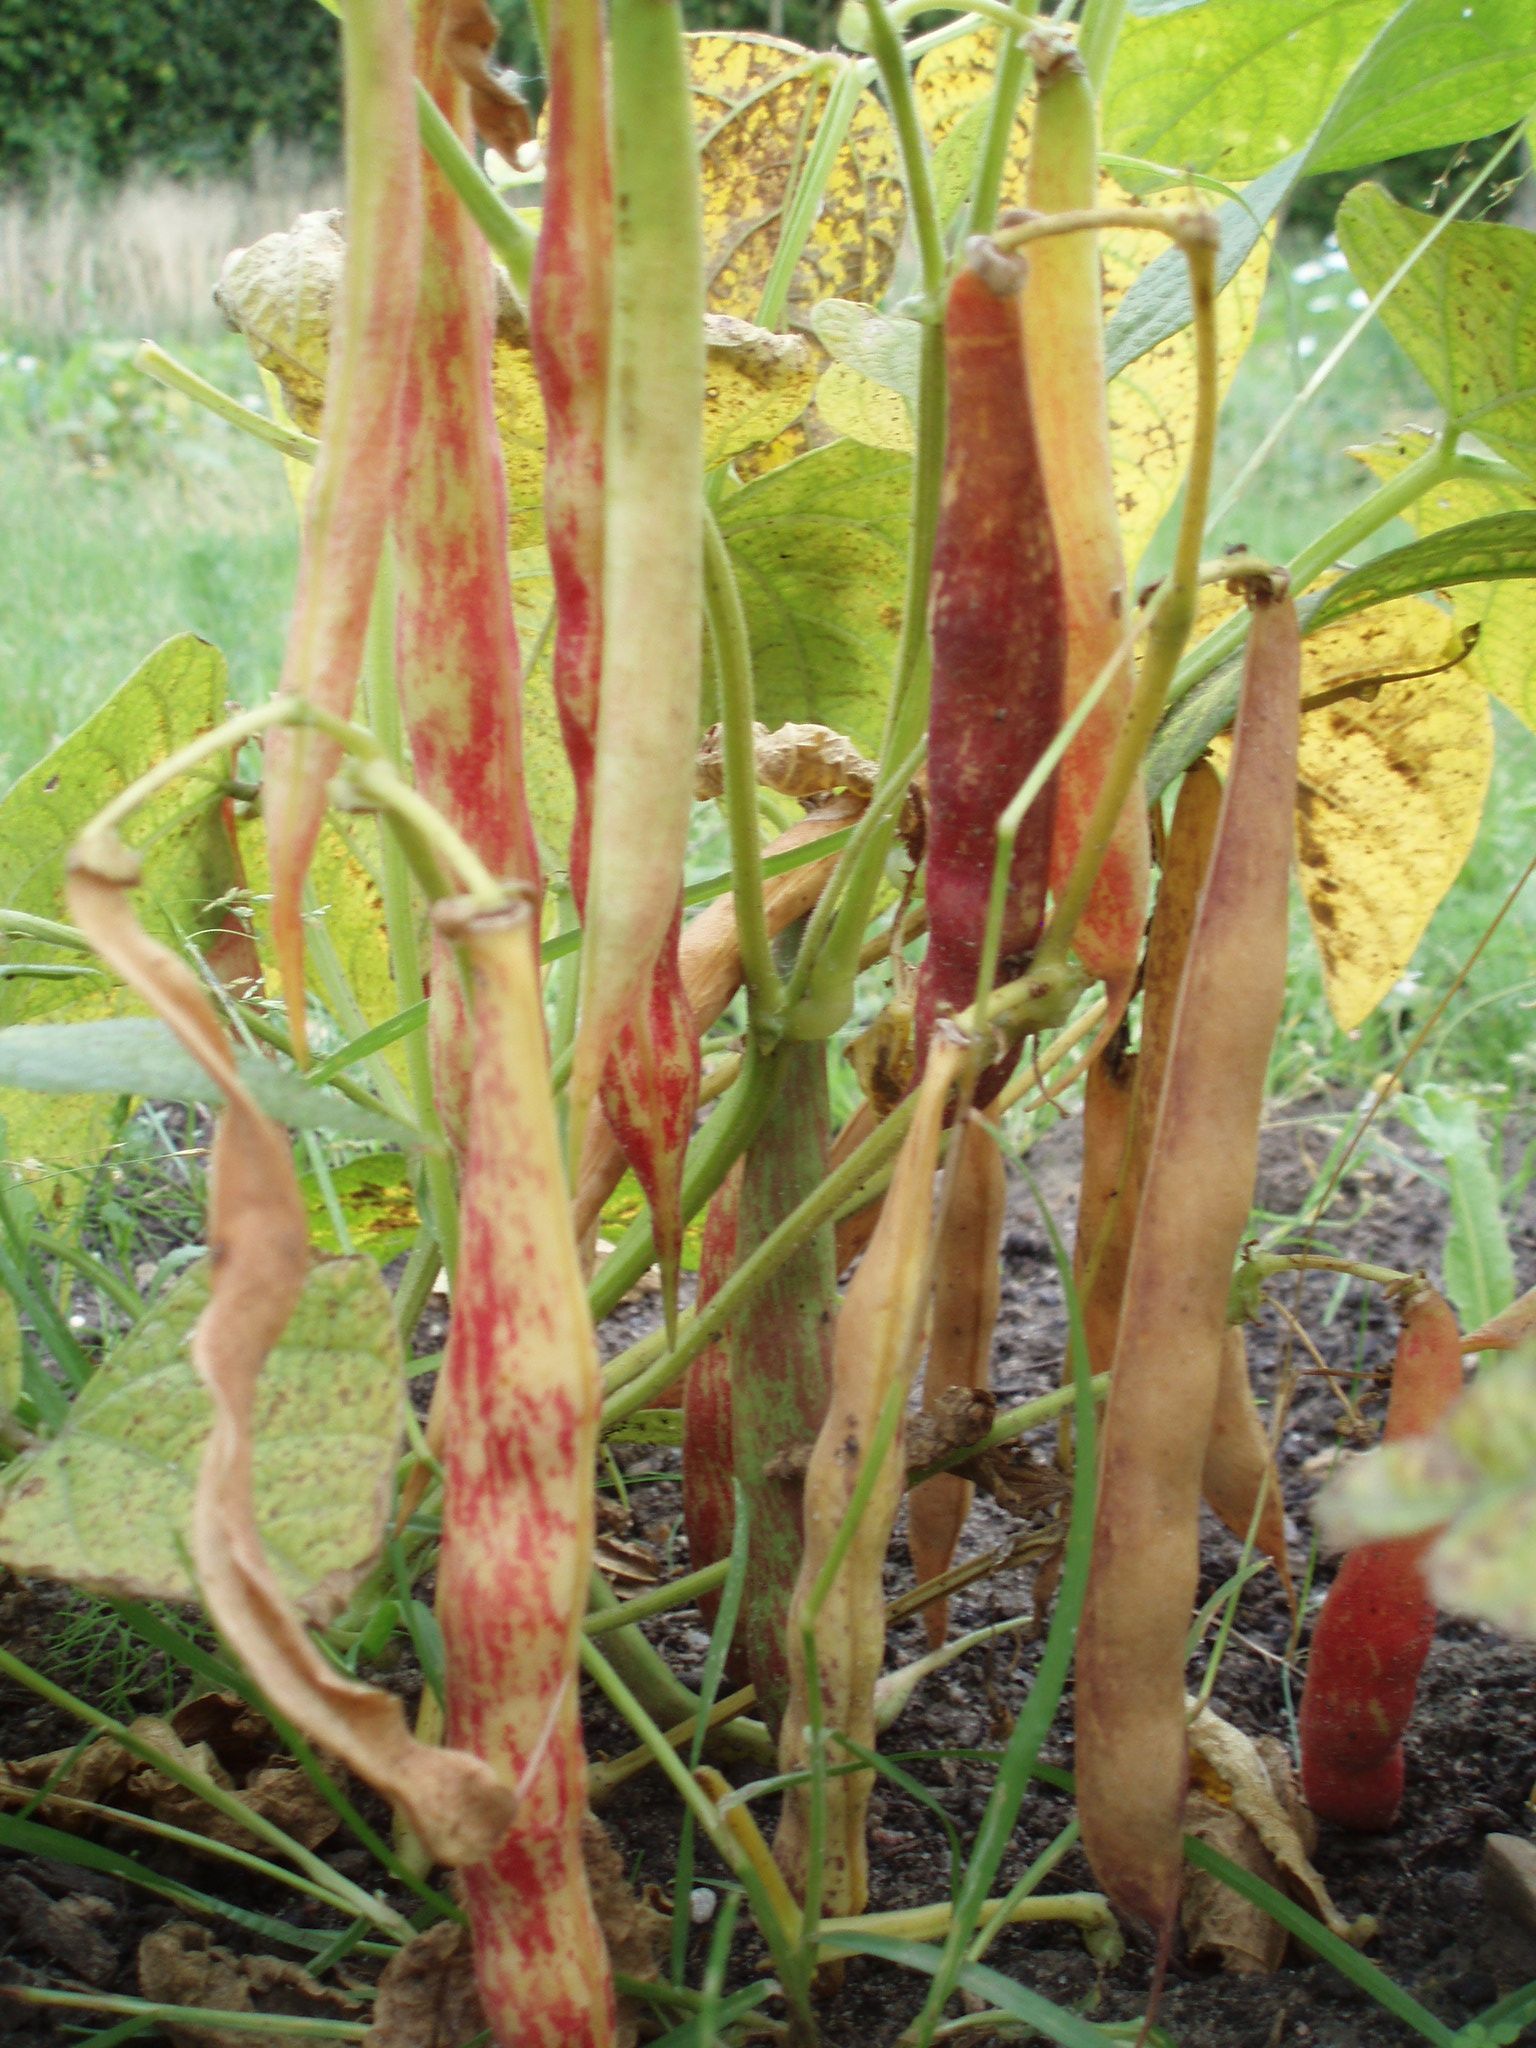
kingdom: Plantae
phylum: Tracheophyta
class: Magnoliopsida
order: Fabales
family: Fabaceae
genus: Phaseolus
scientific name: Phaseolus vulgaris
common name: Bean
